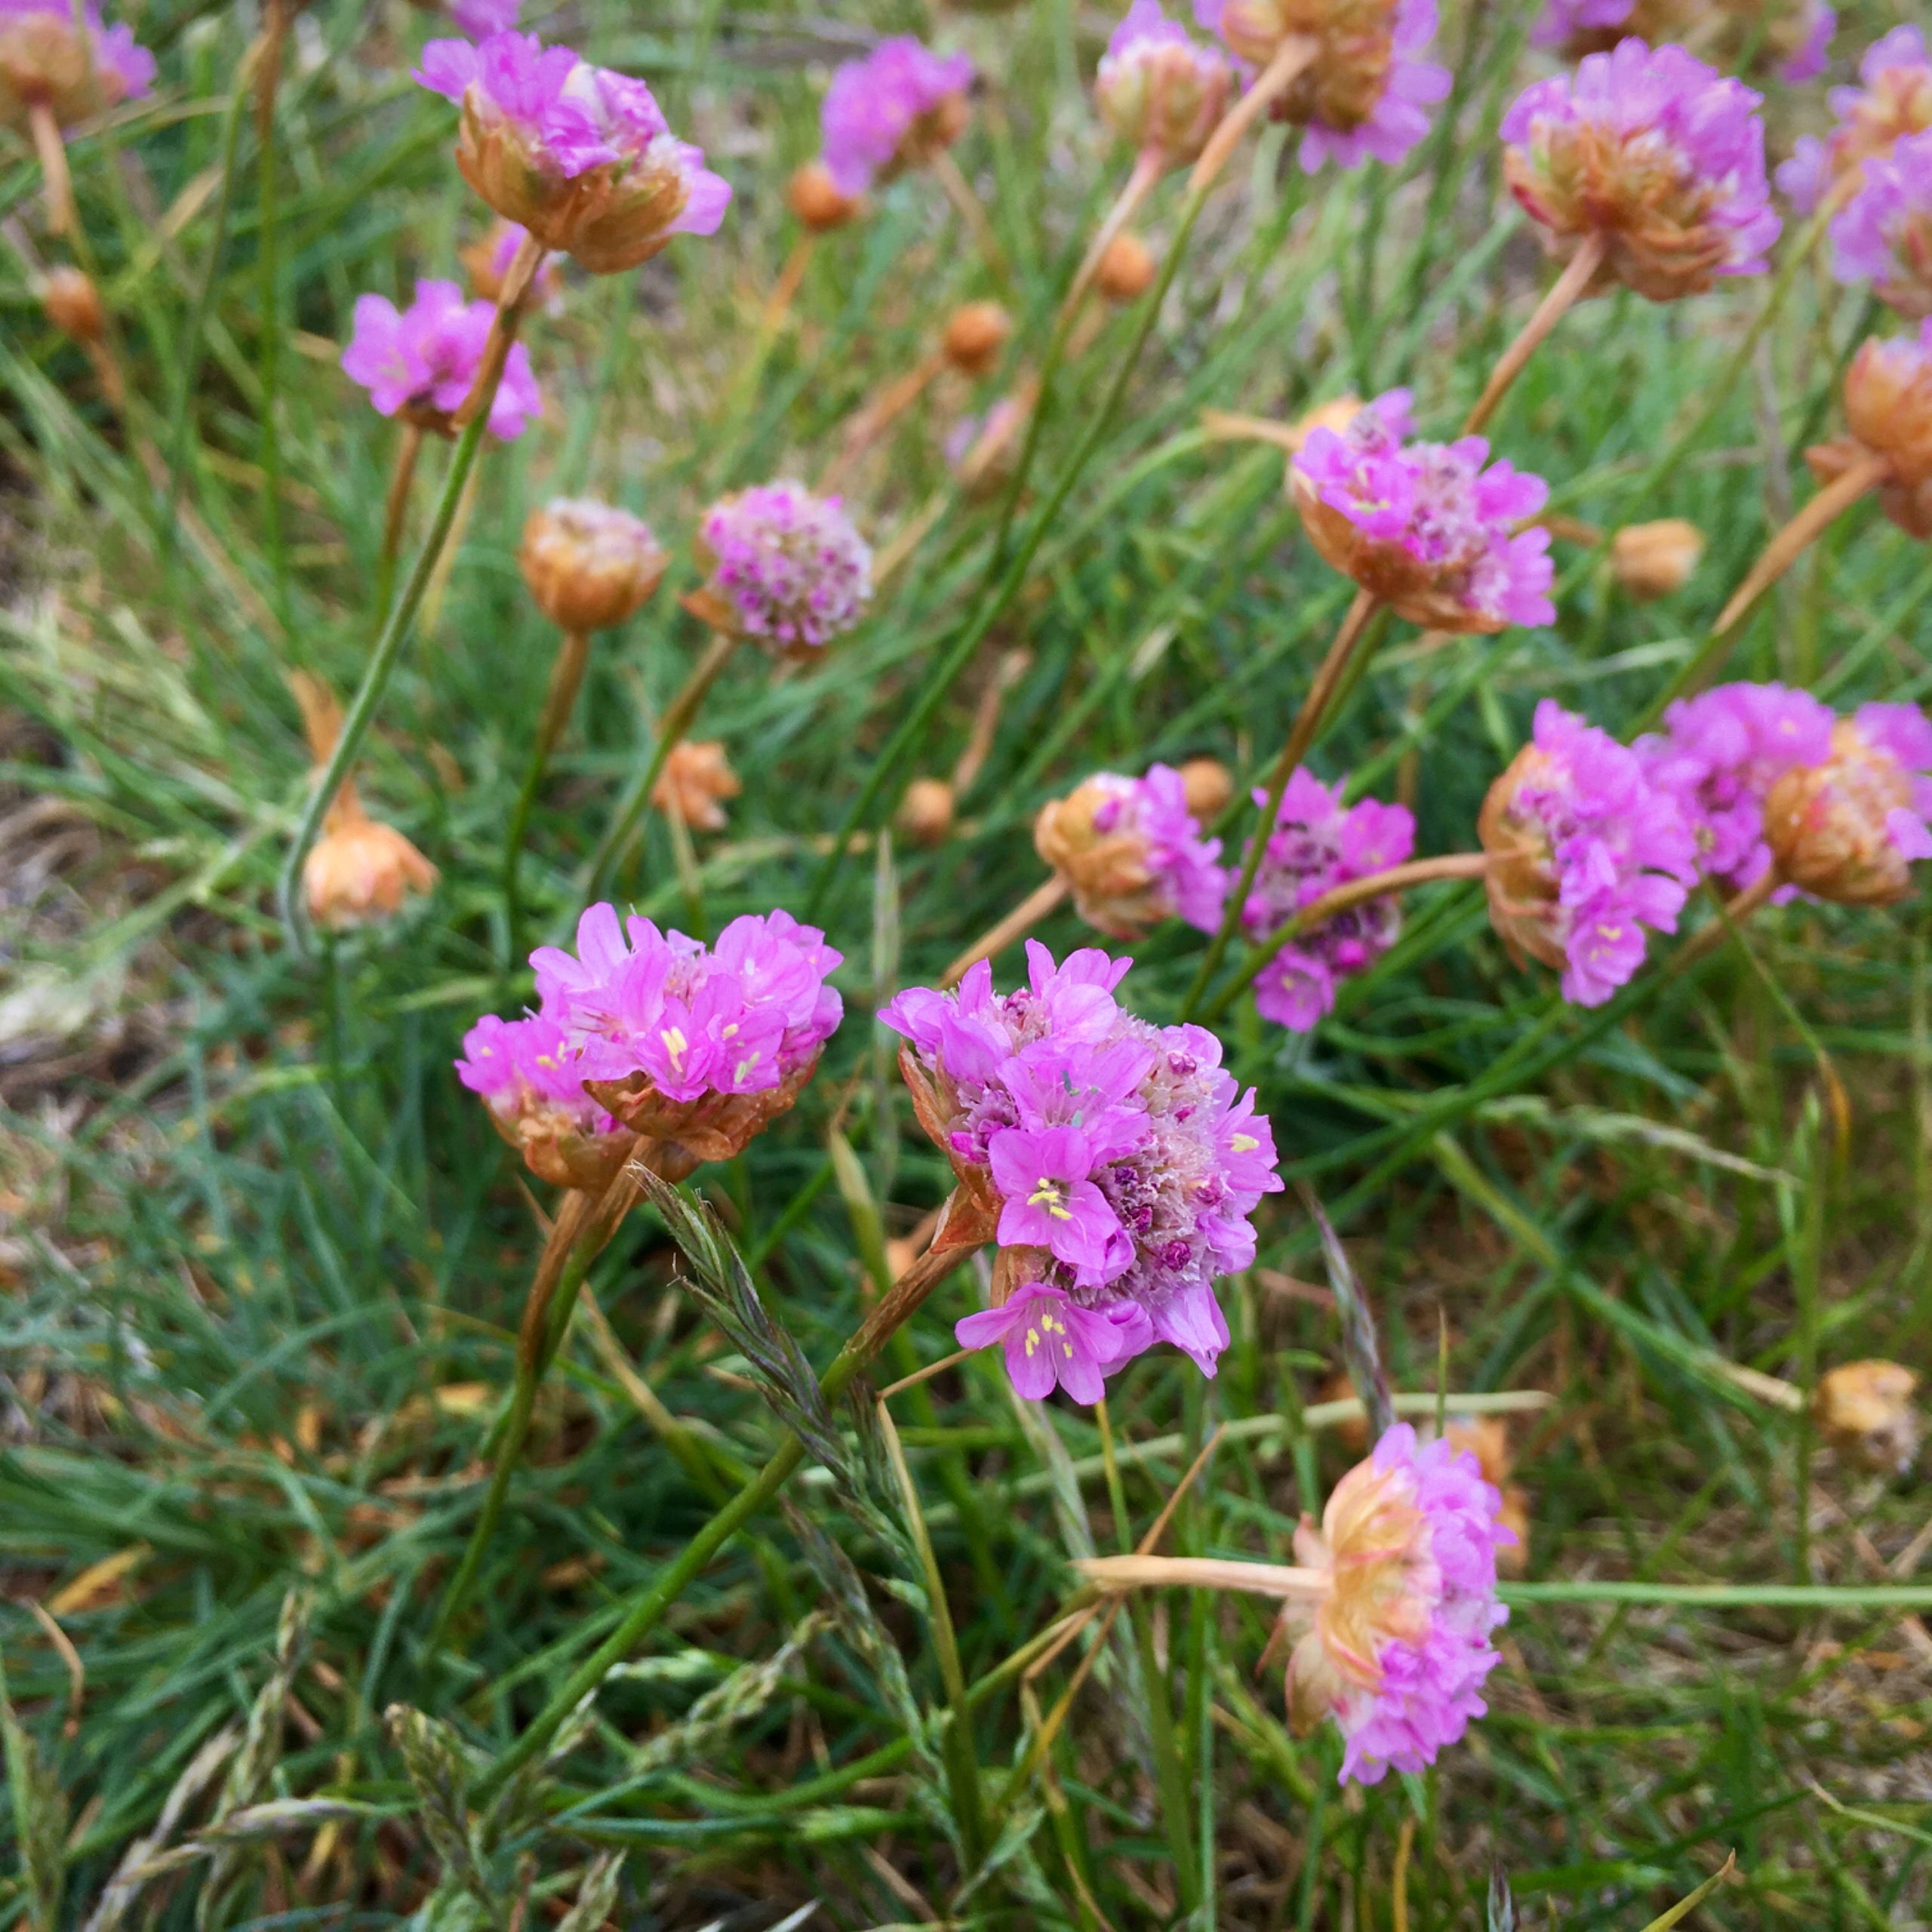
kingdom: Plantae
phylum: Tracheophyta
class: Magnoliopsida
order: Caryophyllales
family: Plumbaginaceae
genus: Armeria
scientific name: Armeria maritima
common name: Engelskgræs
